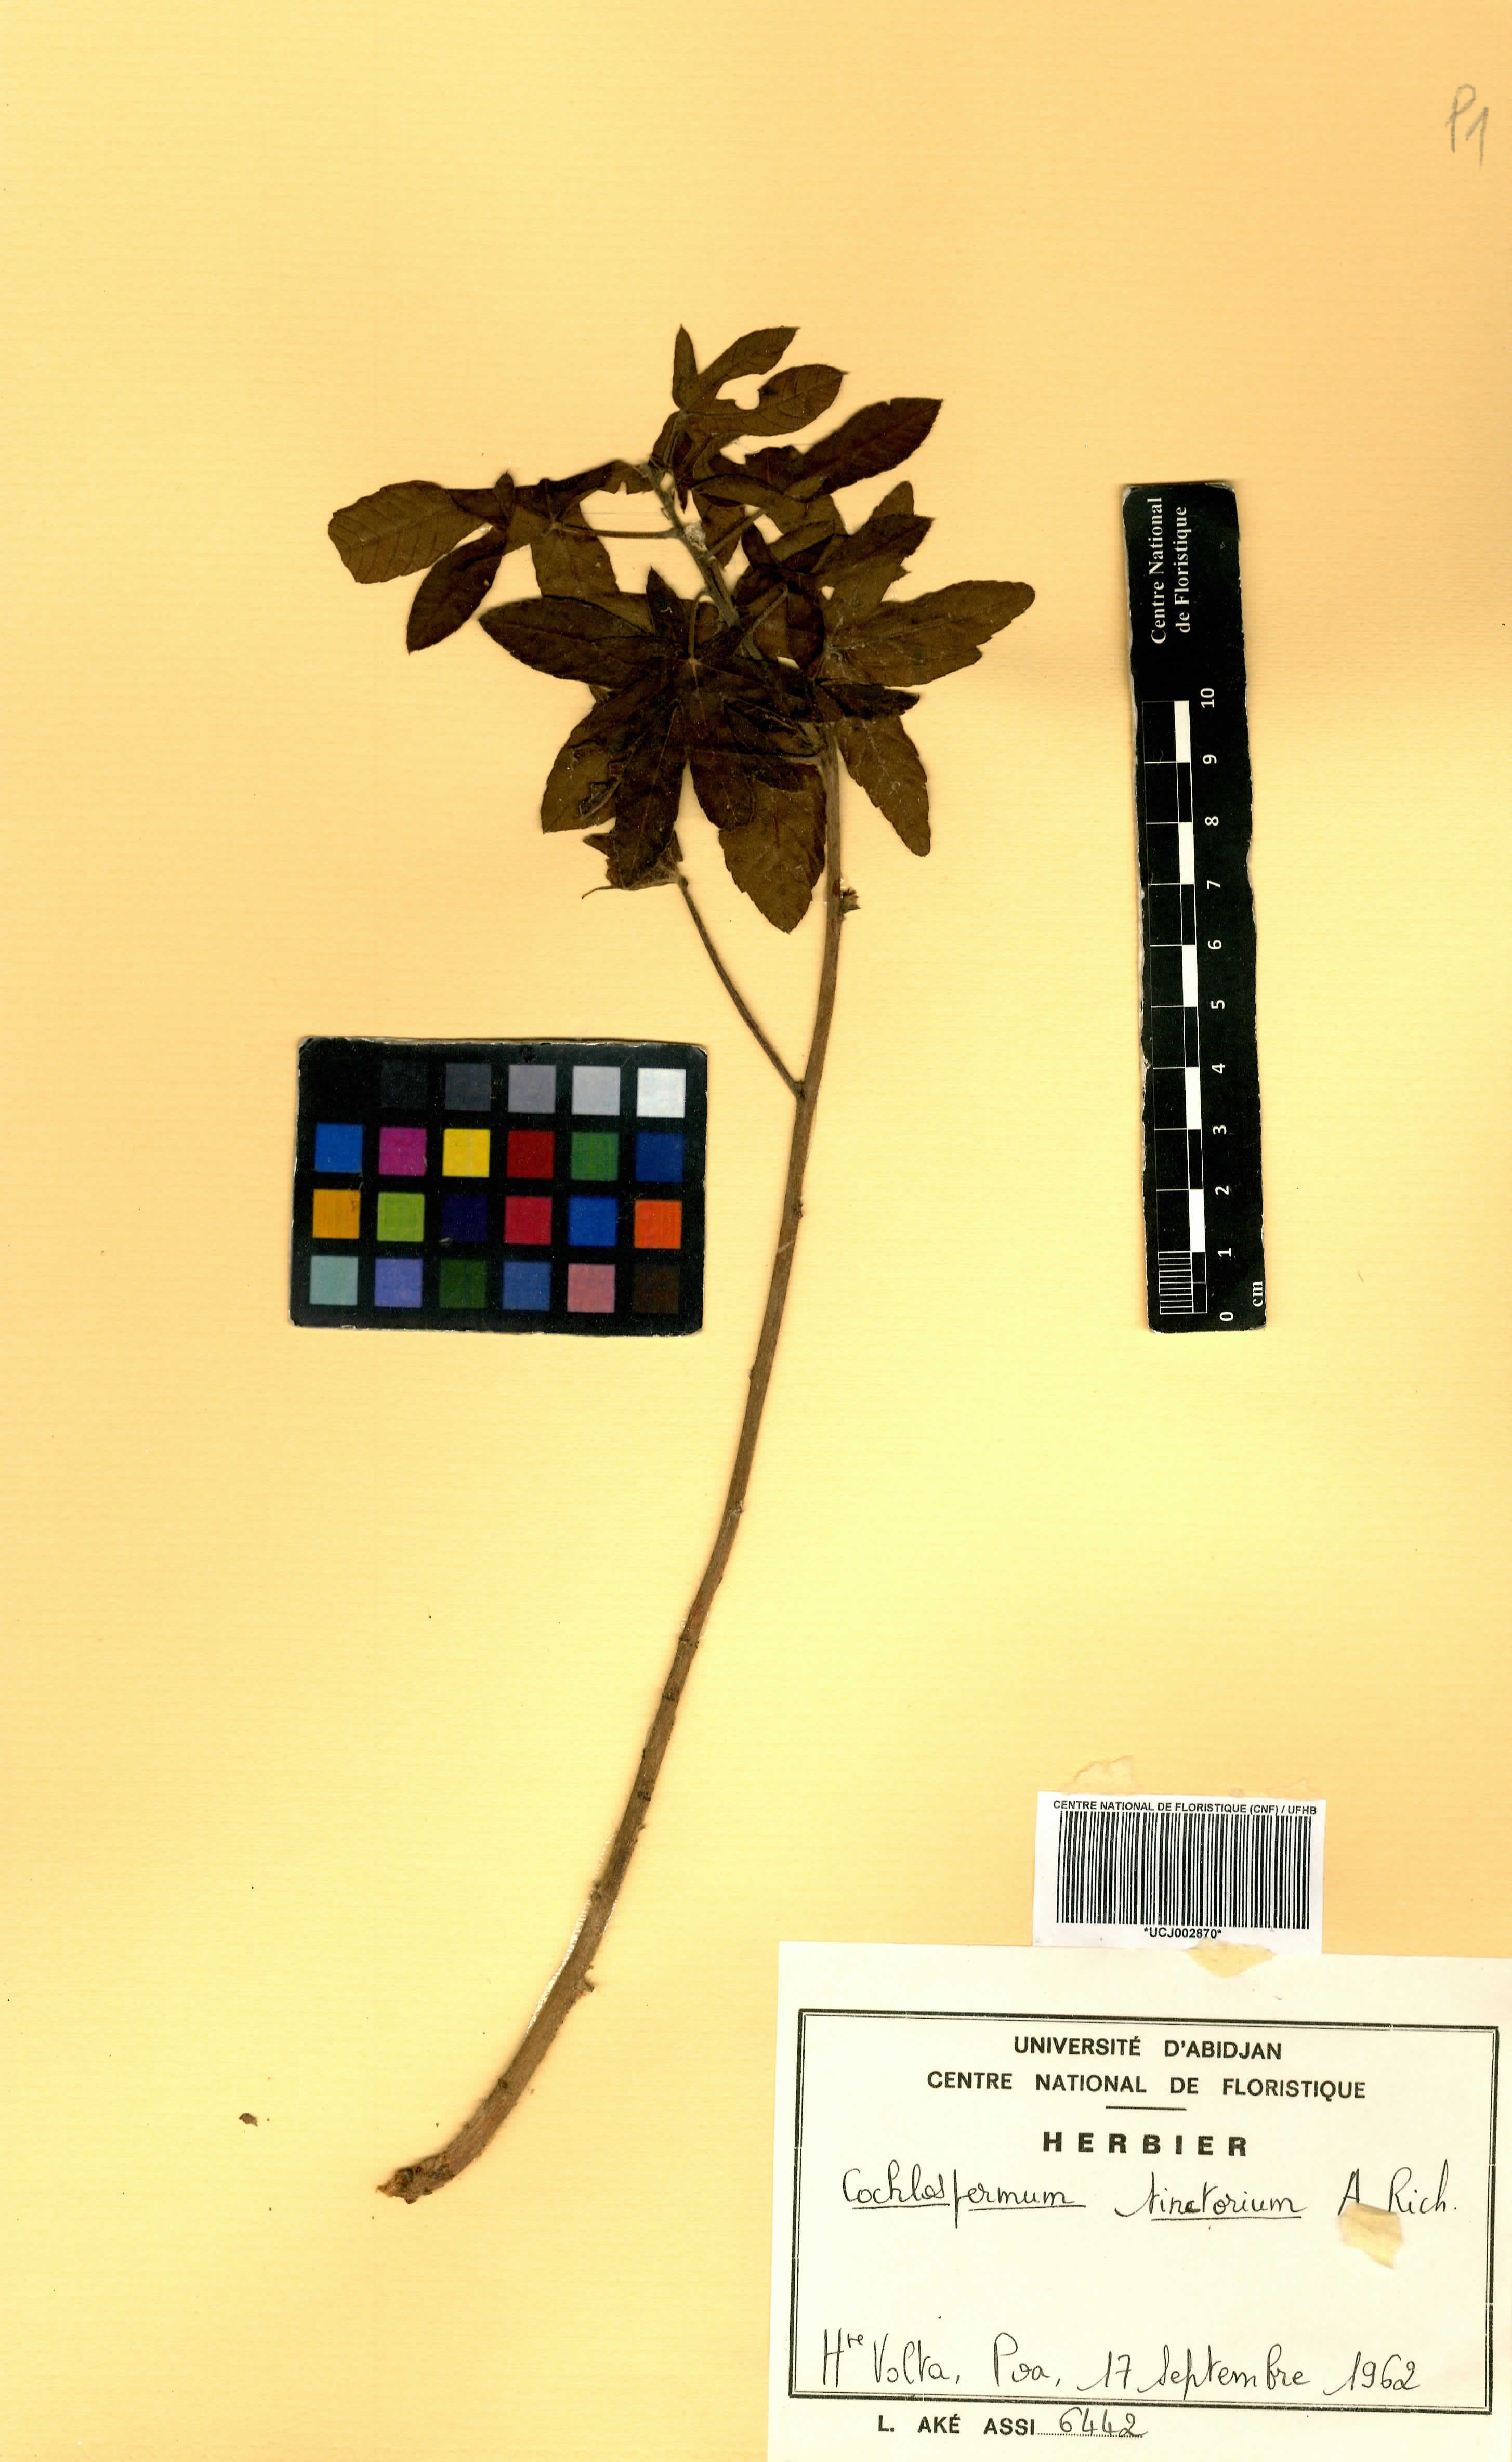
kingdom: Plantae
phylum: Tracheophyta
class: Magnoliopsida
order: Malvales
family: Cochlospermaceae
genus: Cochlospermum
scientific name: Cochlospermum tinctorium
